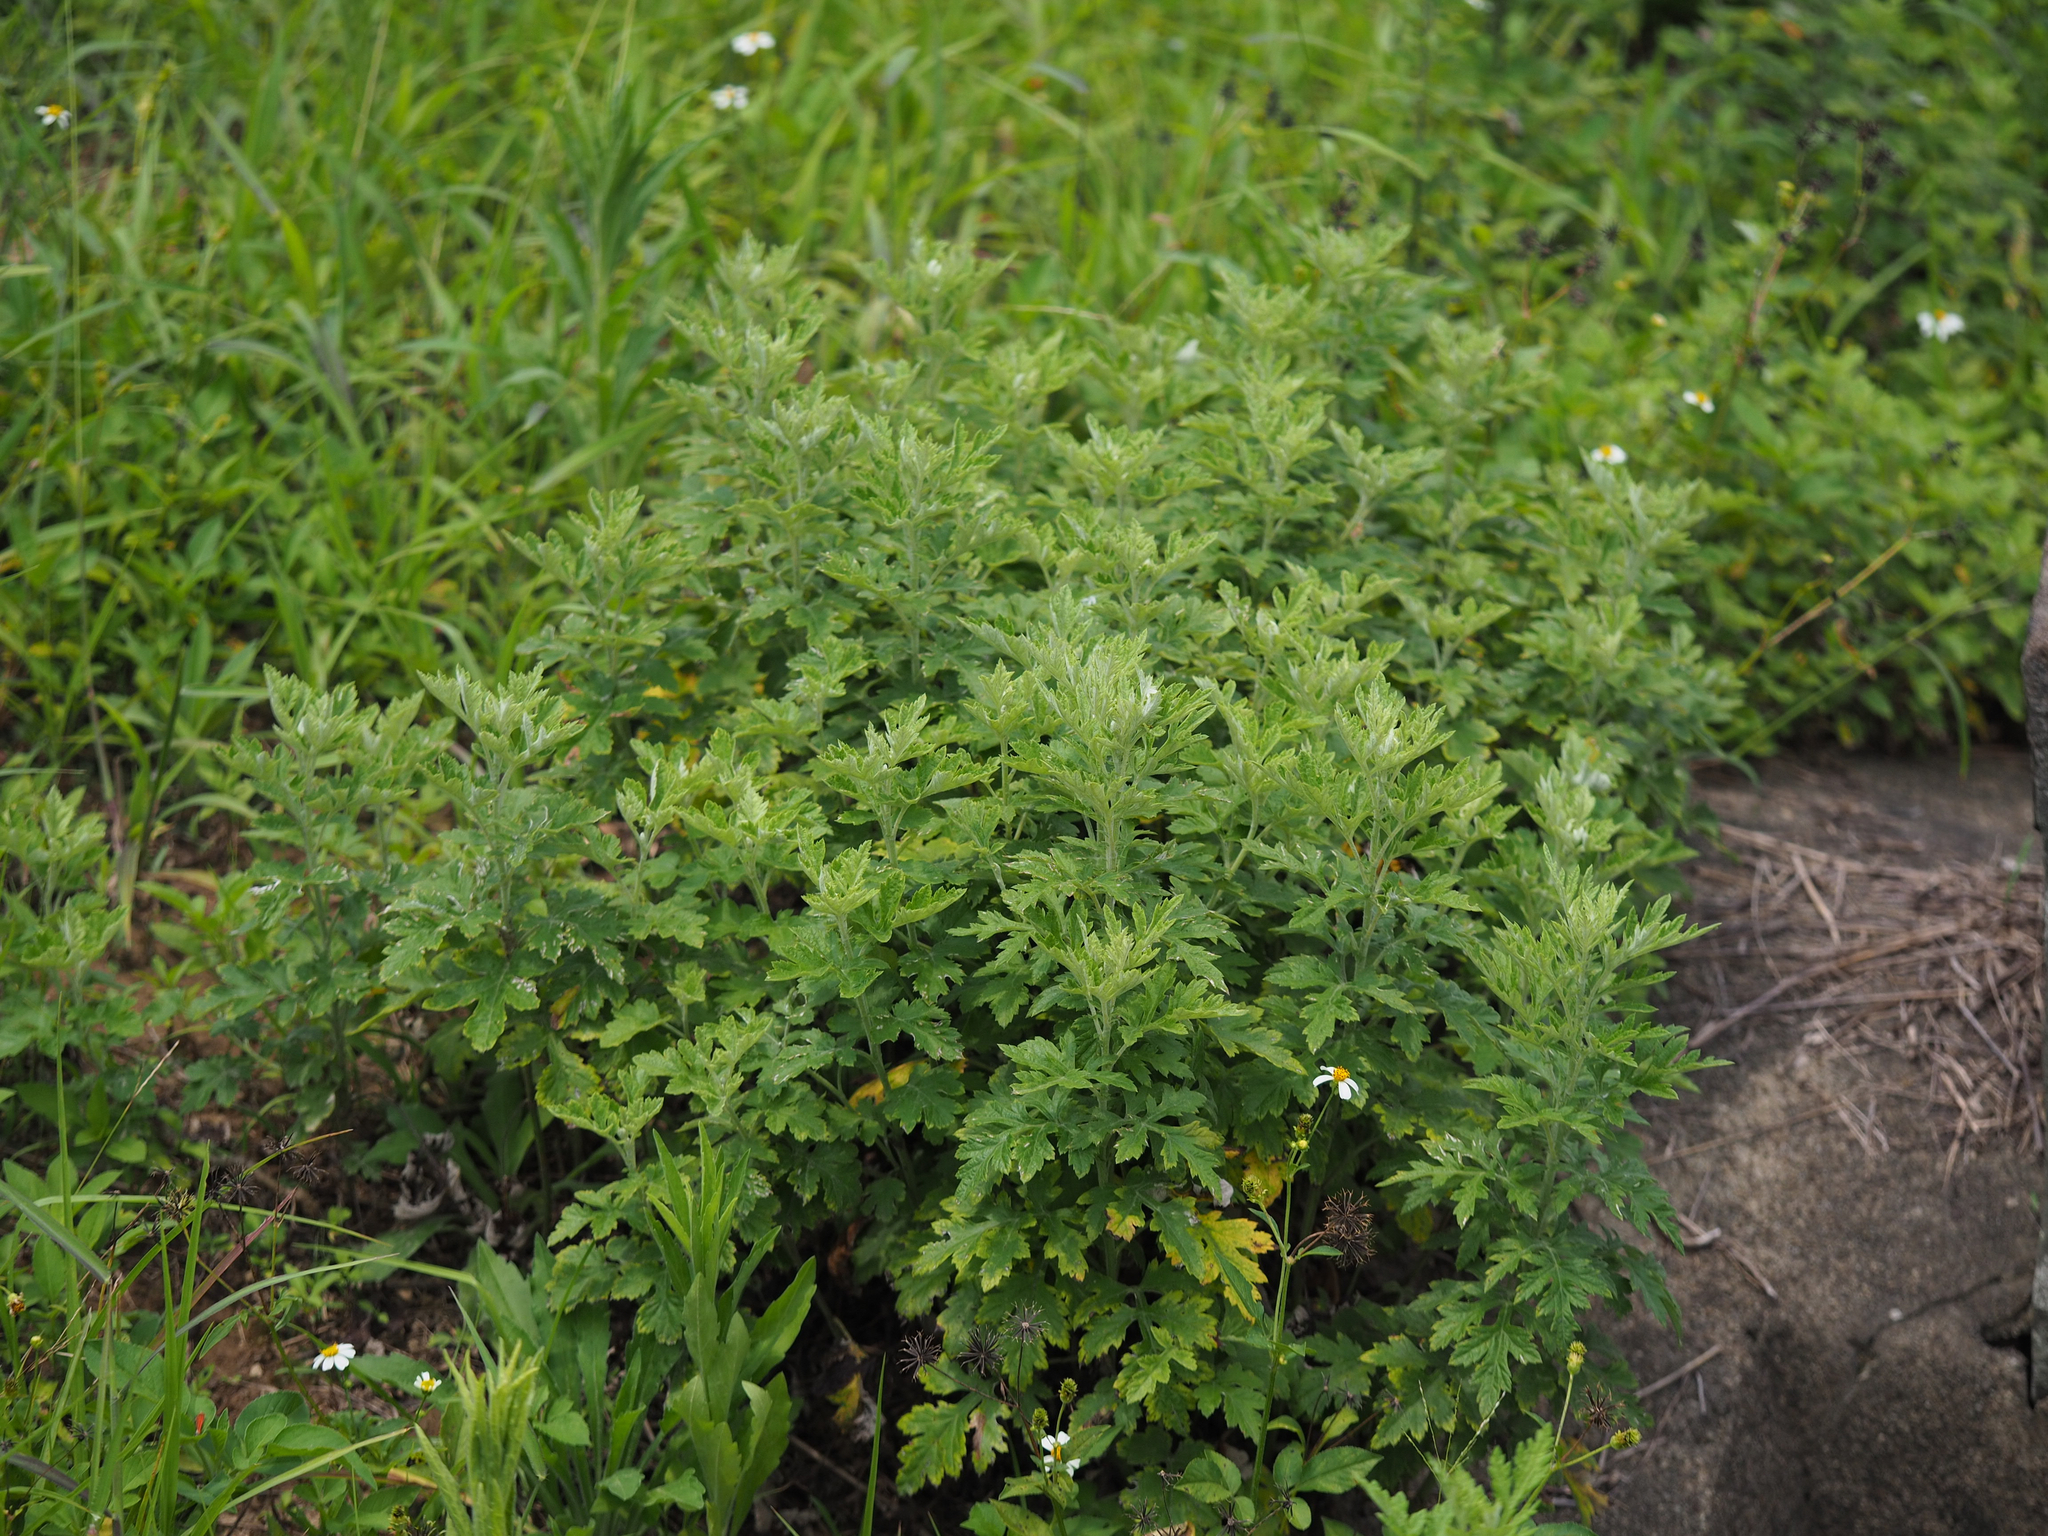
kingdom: Plantae
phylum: Tracheophyta
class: Magnoliopsida
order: Asterales
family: Asteraceae
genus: Artemisia
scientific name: Artemisia indica
